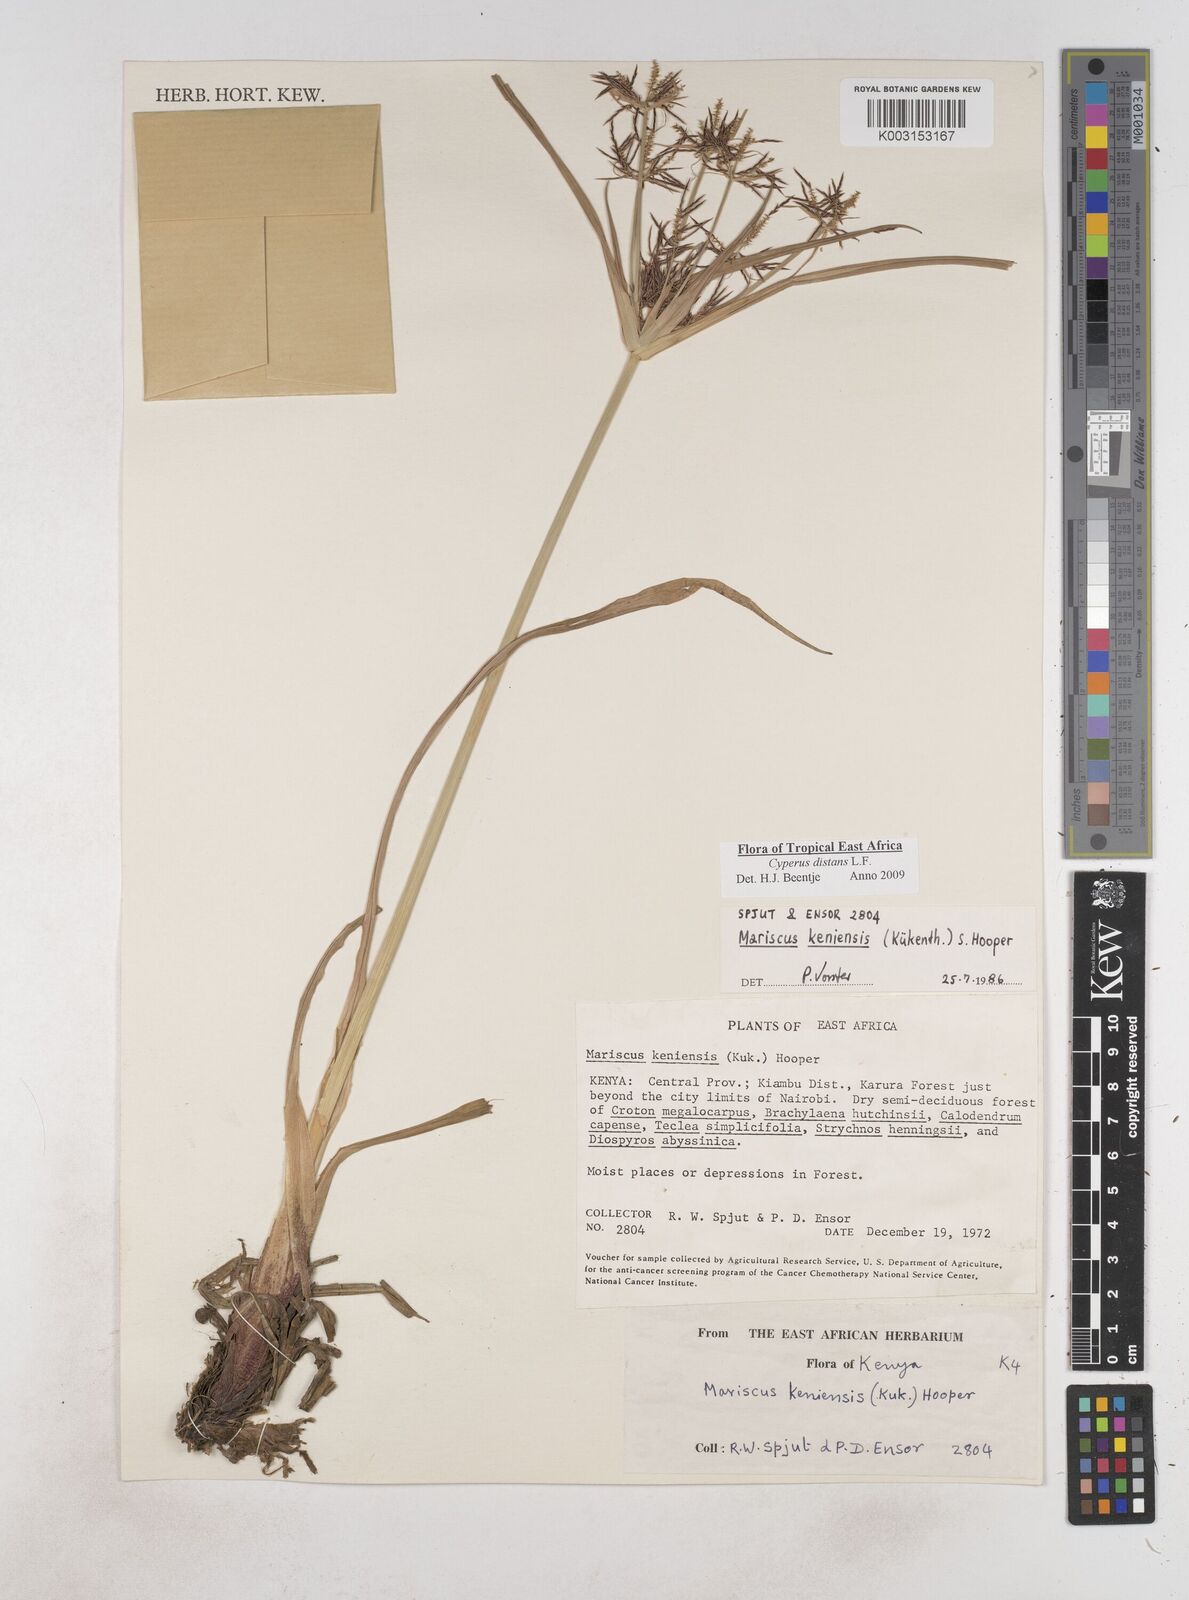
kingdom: Plantae
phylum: Tracheophyta
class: Liliopsida
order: Poales
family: Cyperaceae
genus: Cyperus
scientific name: Cyperus distans
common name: Slender cyperus
